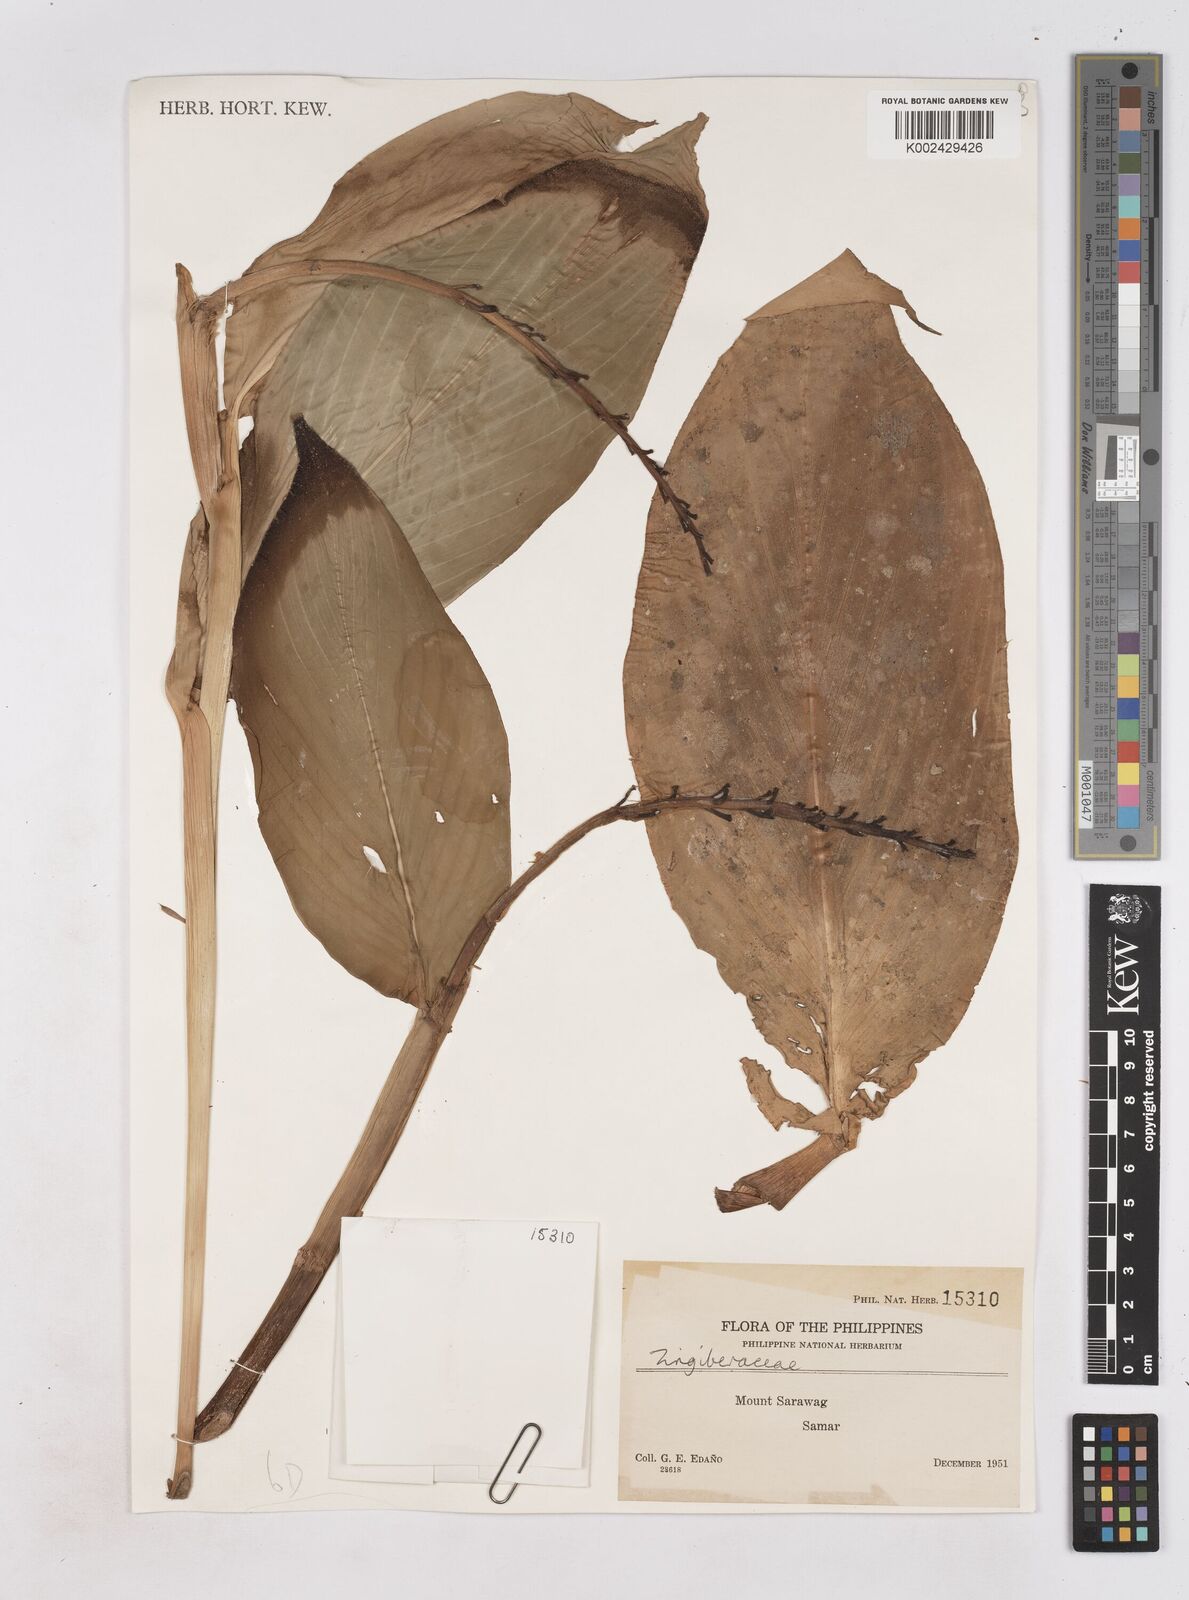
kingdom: Plantae
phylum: Tracheophyta
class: Liliopsida
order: Zingiberales
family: Zingiberaceae
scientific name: Zingiberaceae
